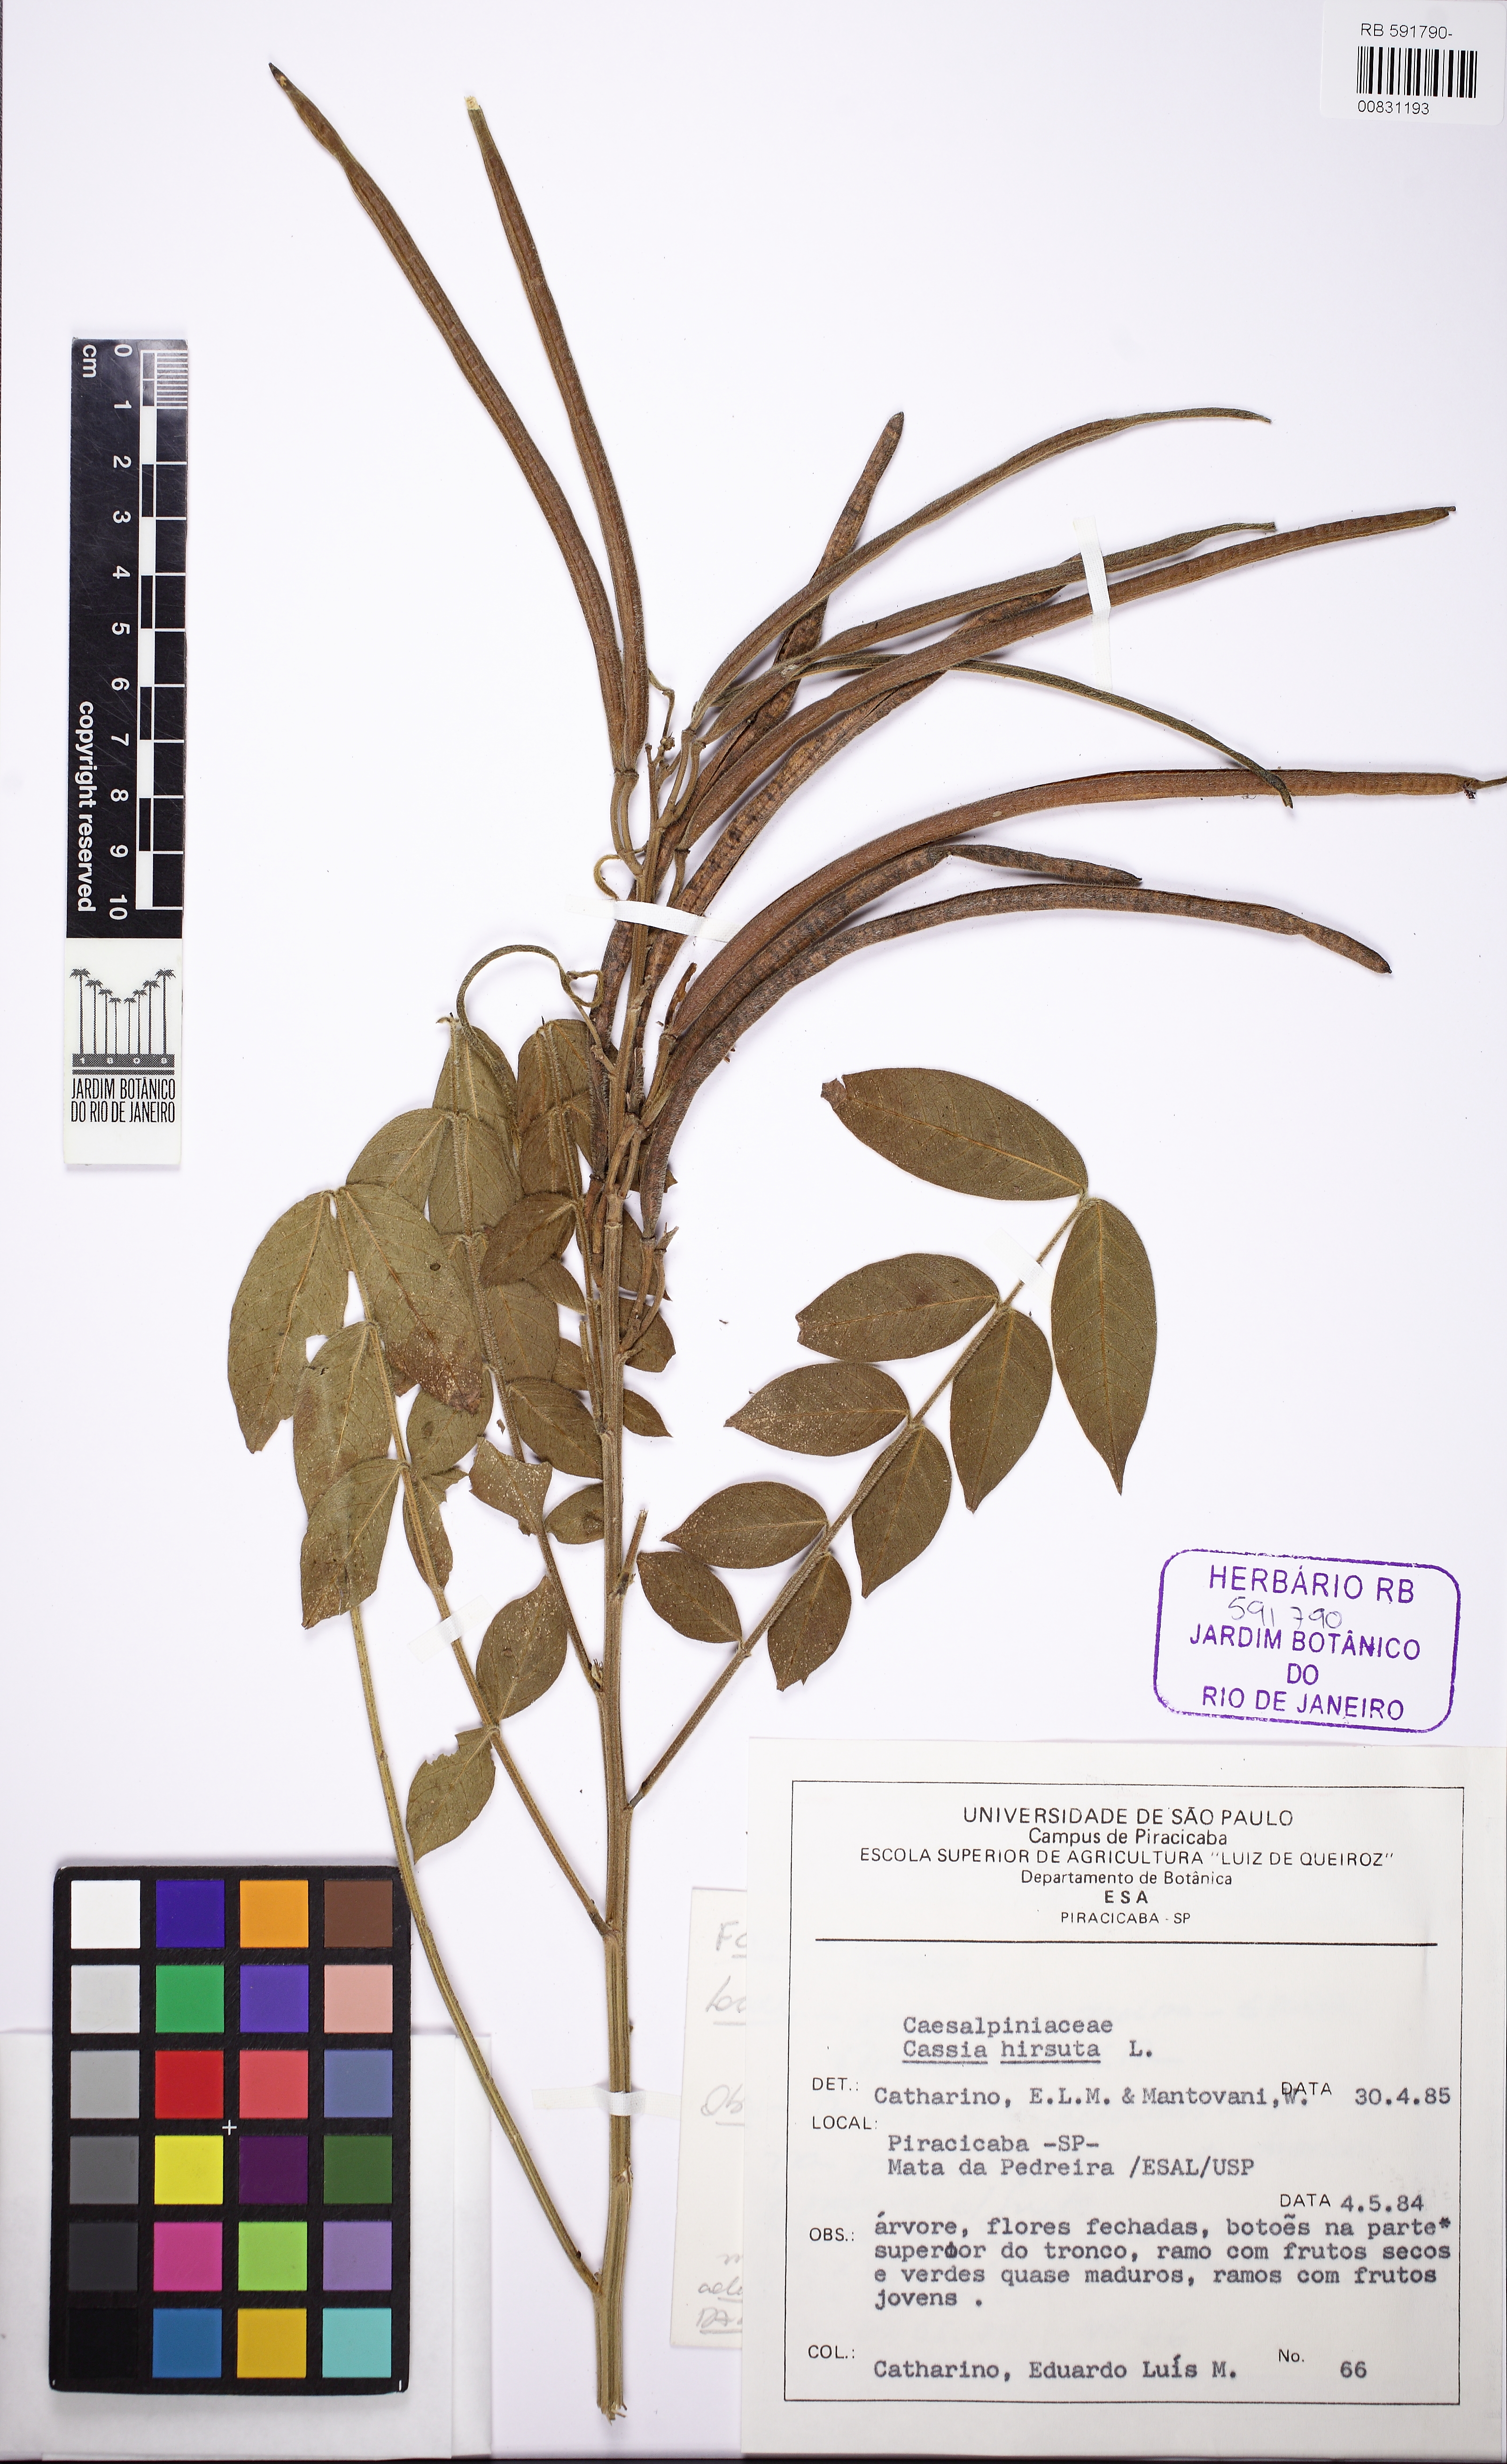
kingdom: Plantae
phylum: Tracheophyta
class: Magnoliopsida
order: Fabales
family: Fabaceae
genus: Senna
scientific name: Senna hirsuta
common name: Woolly senna
